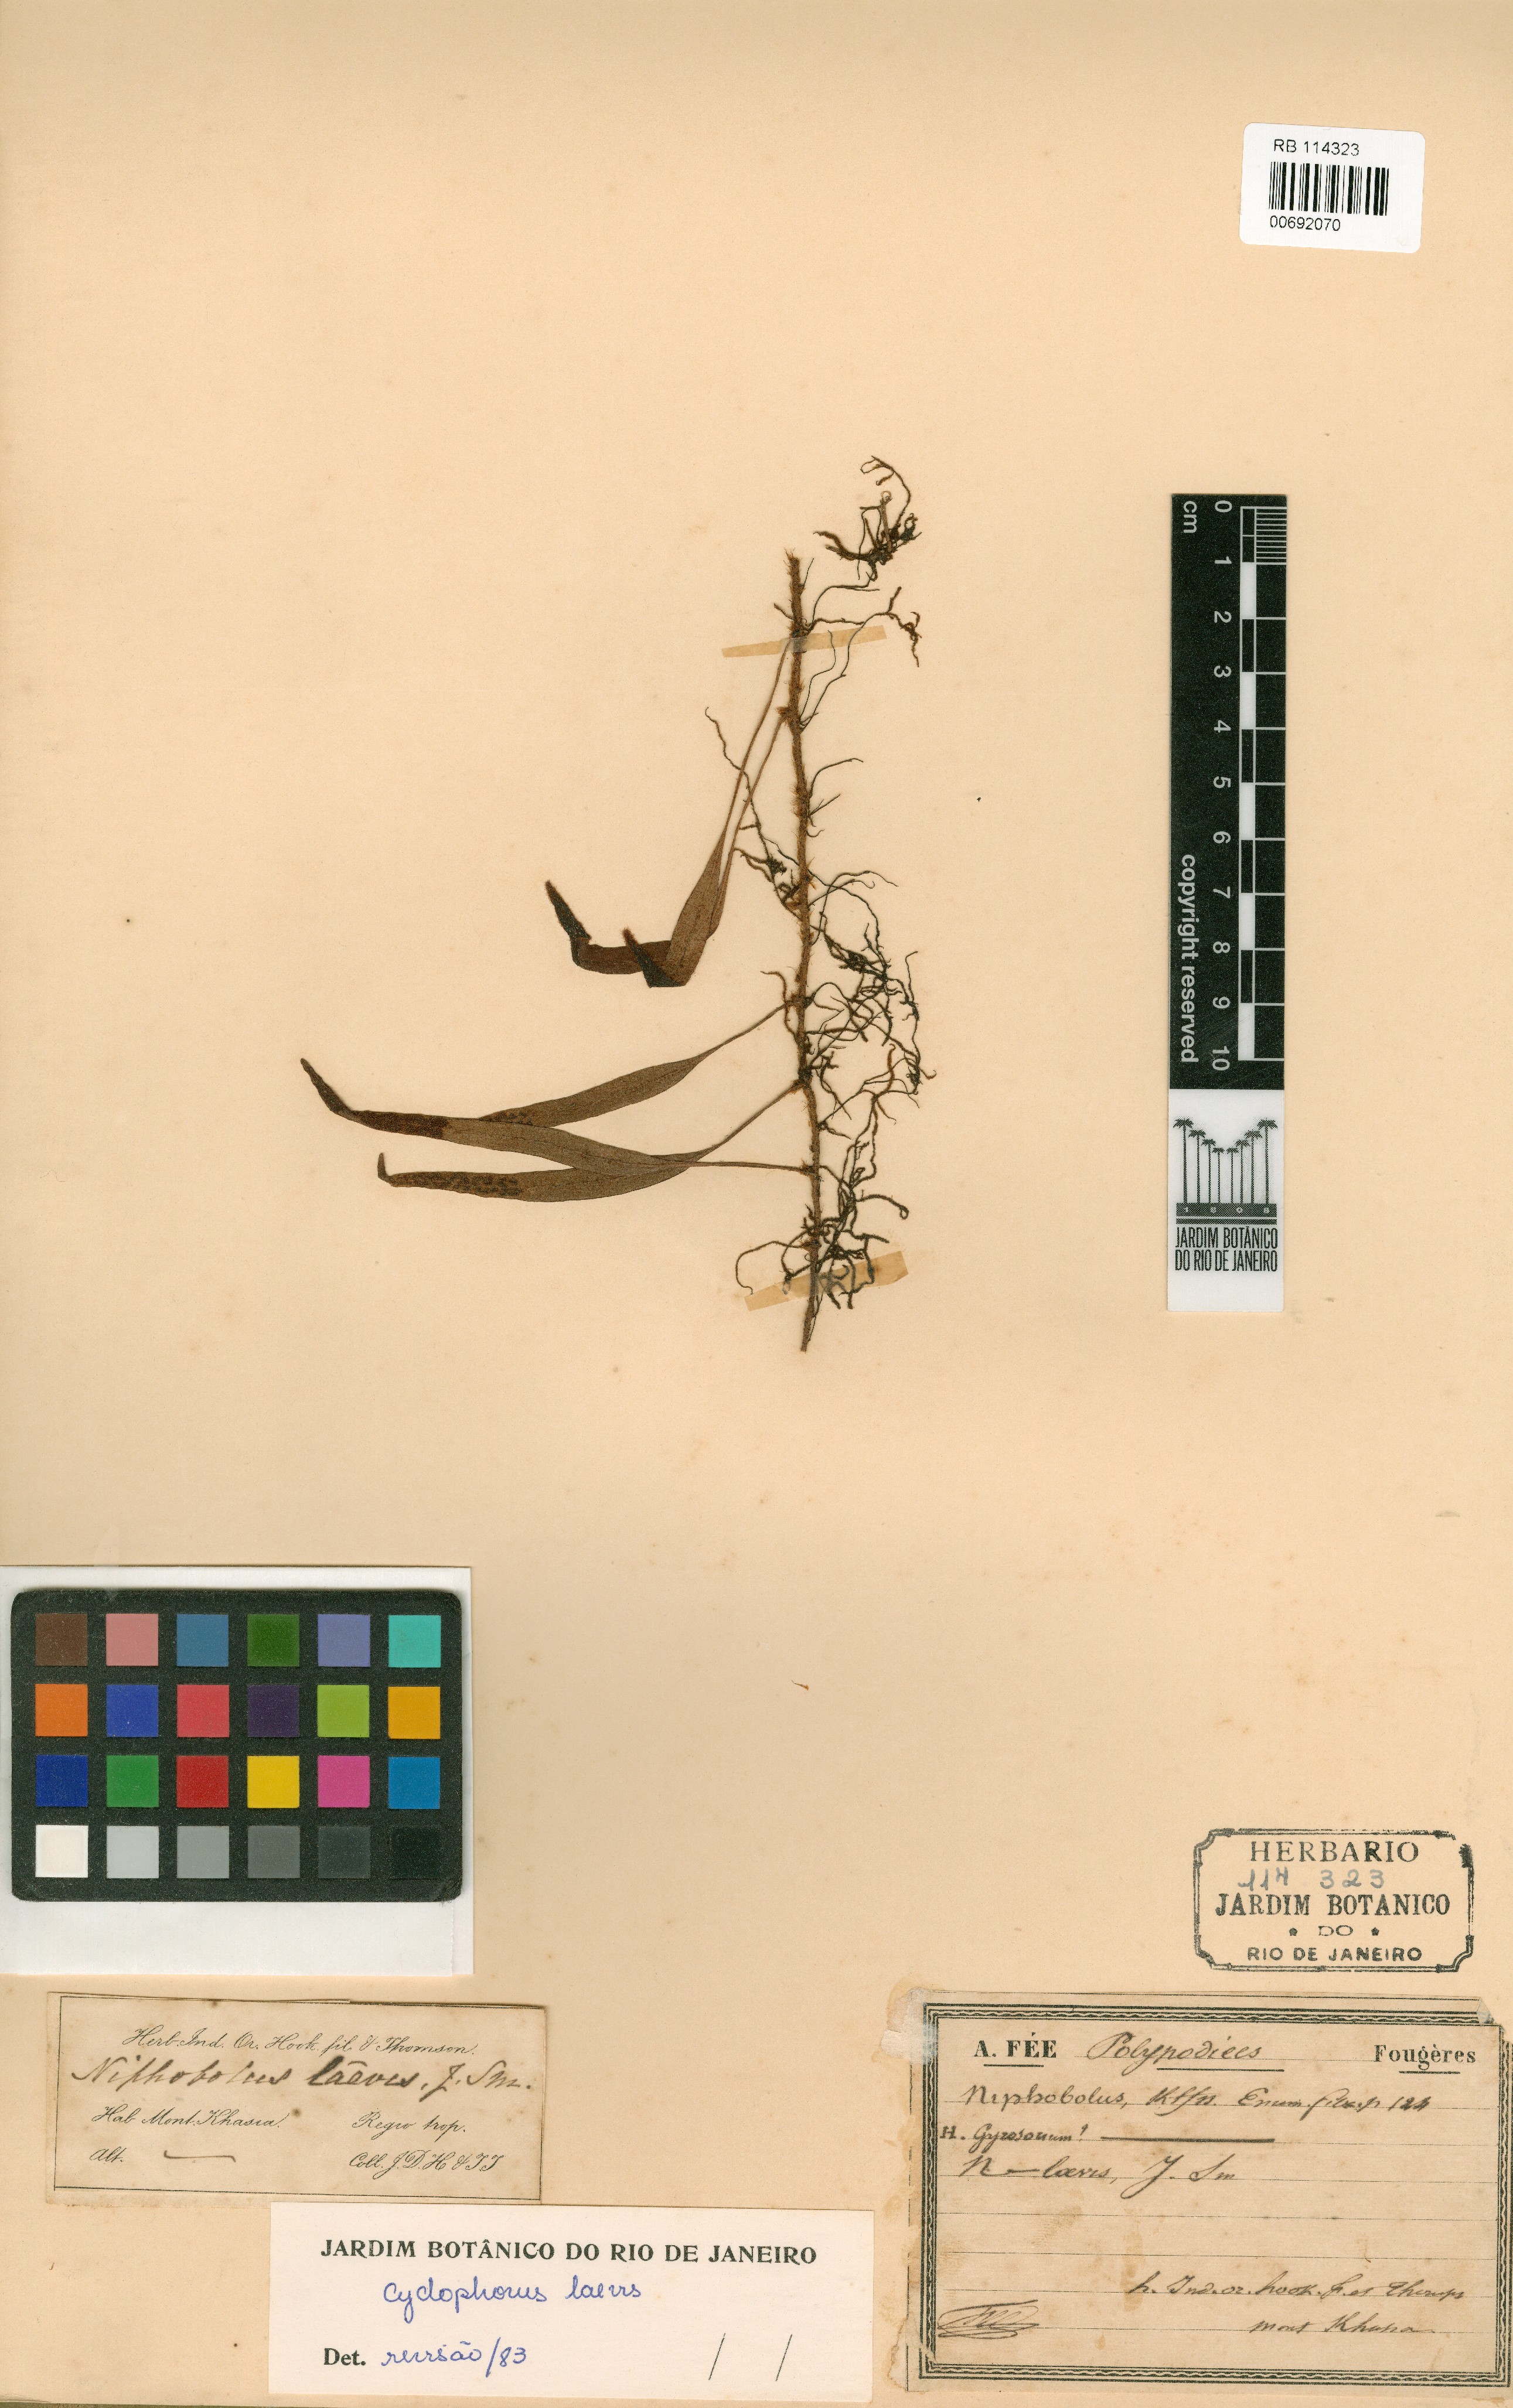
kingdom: Plantae
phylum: Tracheophyta
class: Polypodiopsida
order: Polypodiales
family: Polypodiaceae
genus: Pyrrosia
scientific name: Pyrrosia laevis
